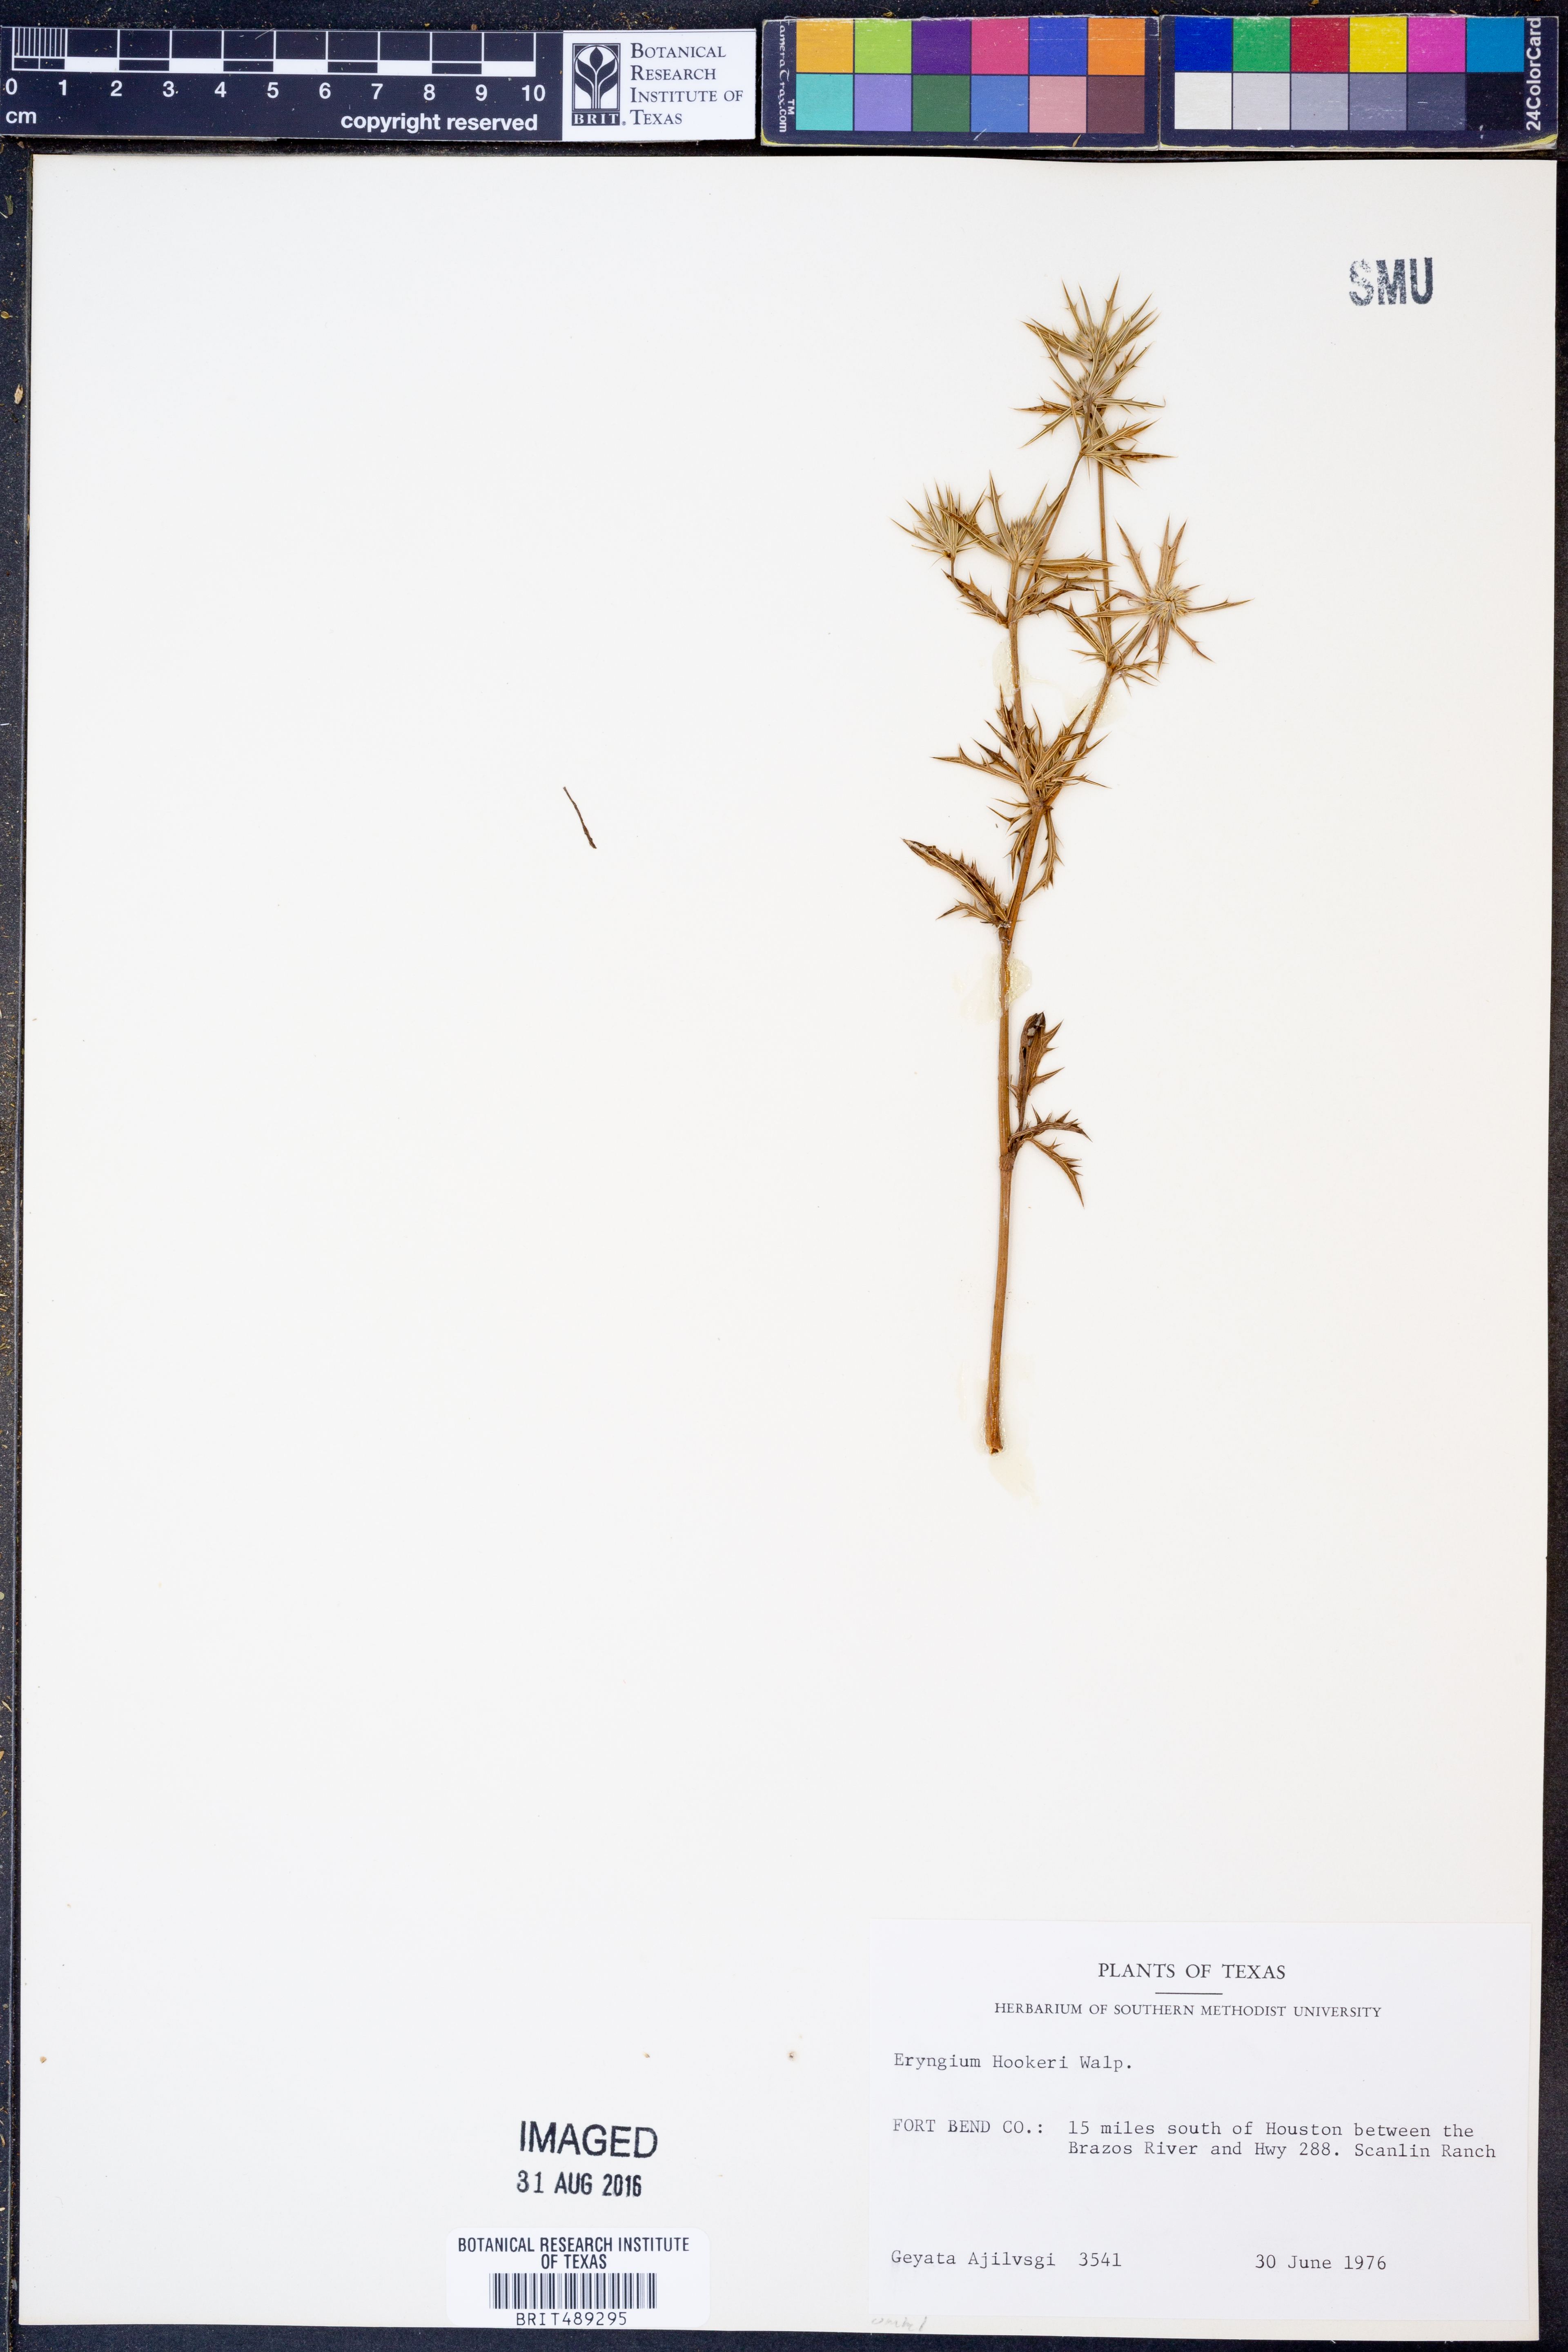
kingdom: Plantae
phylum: Tracheophyta
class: Magnoliopsida
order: Apiales
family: Apiaceae
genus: Eryngium
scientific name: Eryngium hookeri
